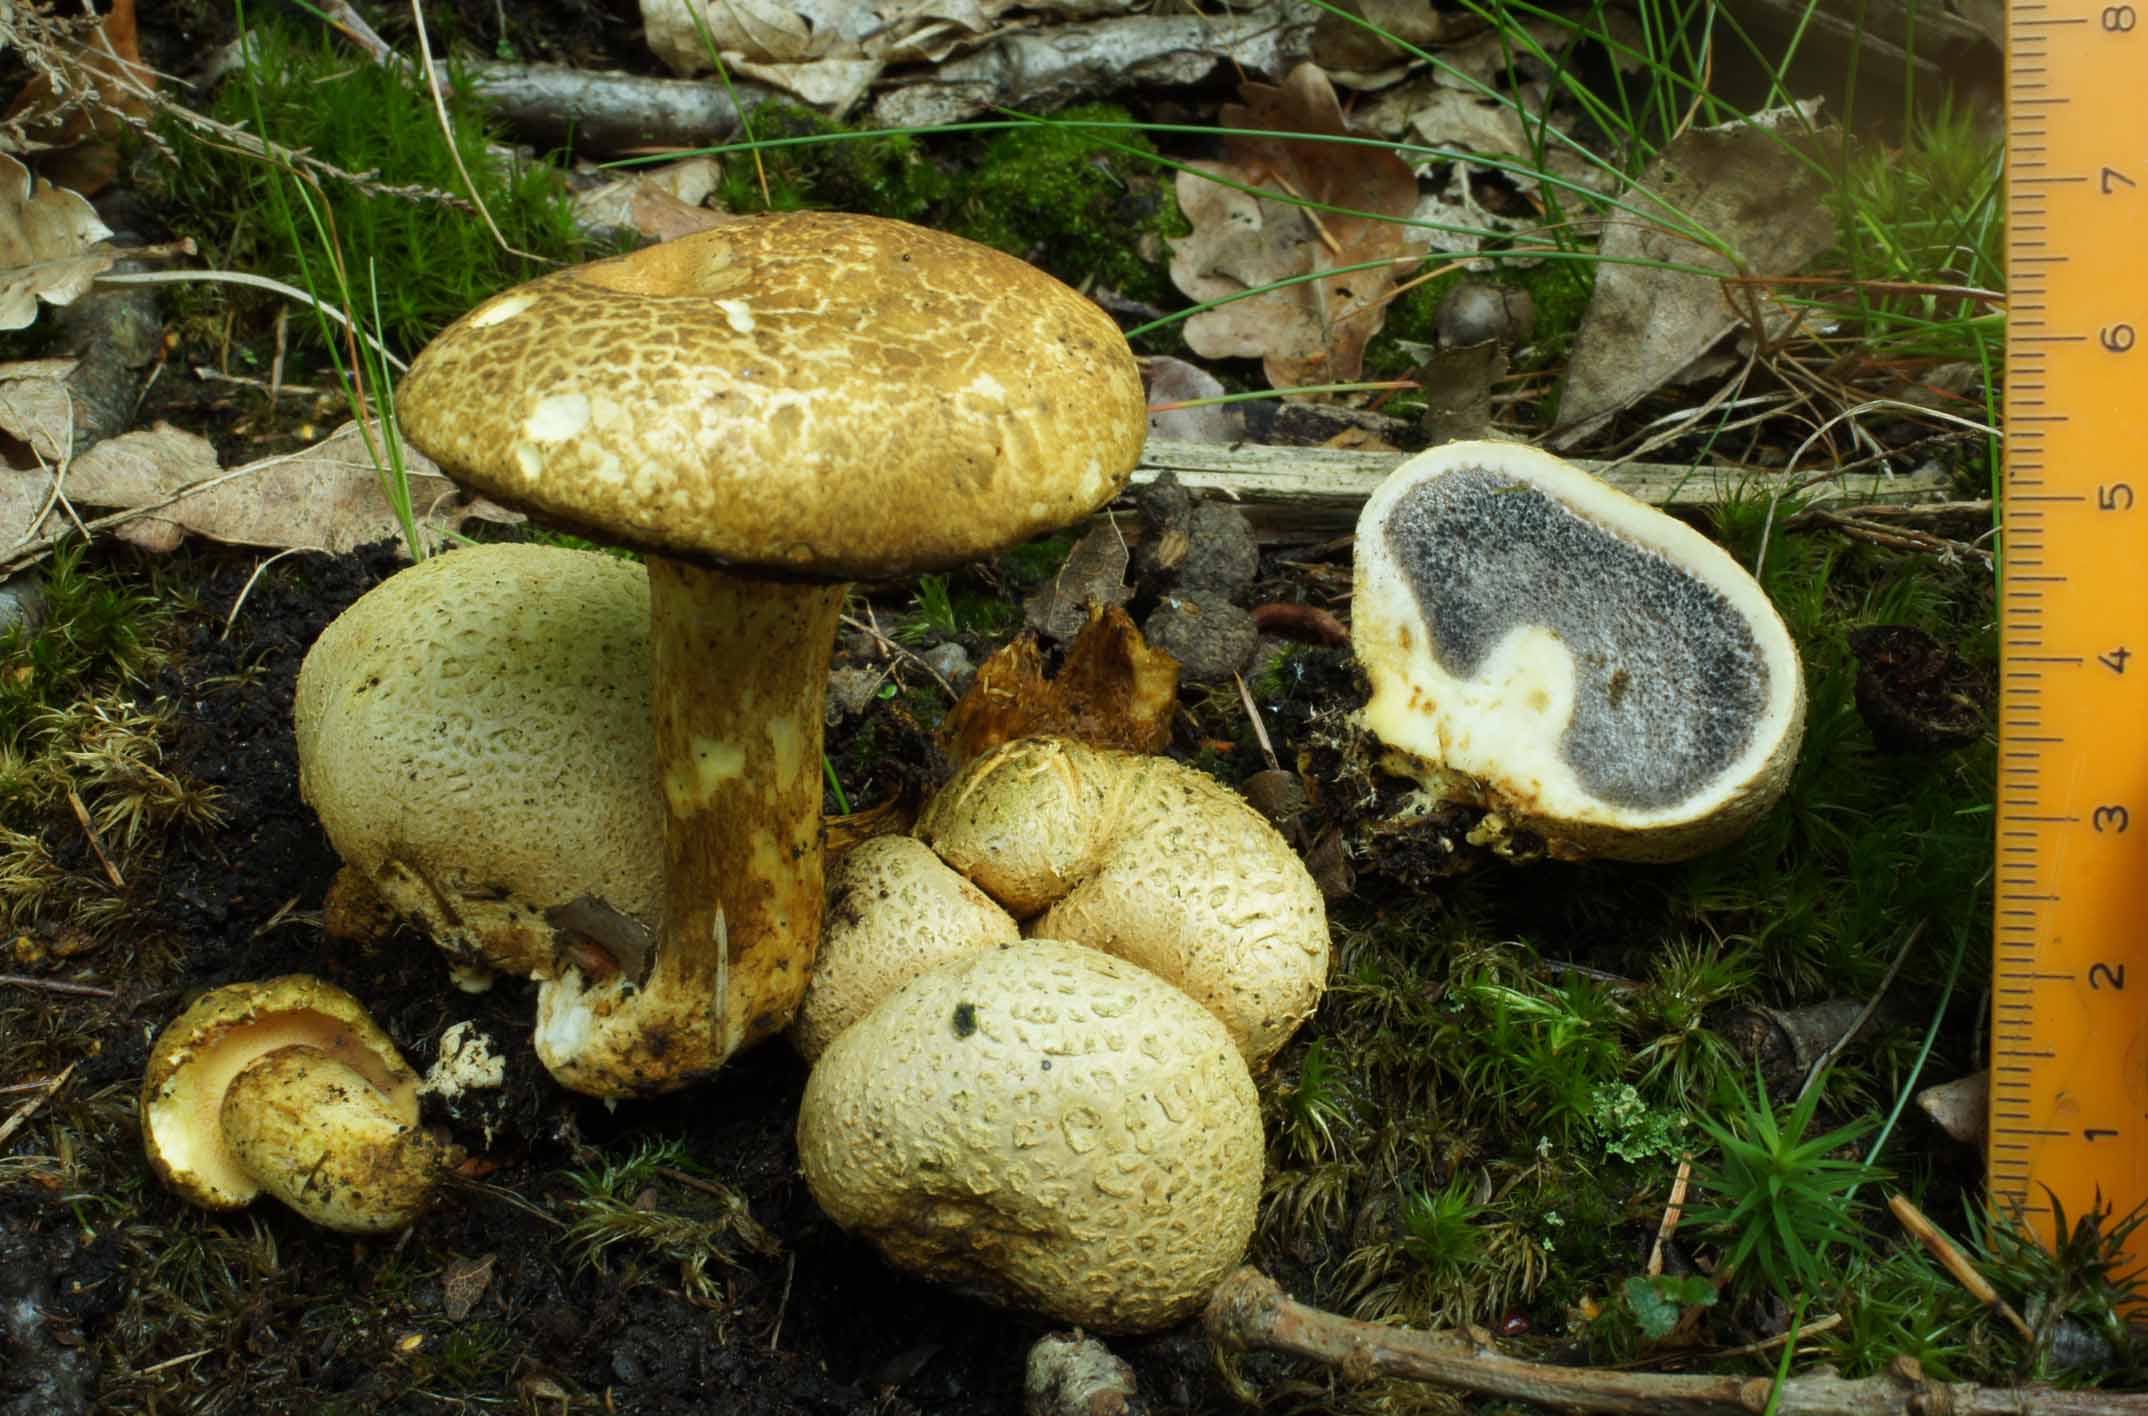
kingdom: Fungi
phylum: Basidiomycota
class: Agaricomycetes
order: Boletales
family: Boletaceae
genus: Pseudoboletus
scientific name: Pseudoboletus parasiticus
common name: snyltende rørhat
